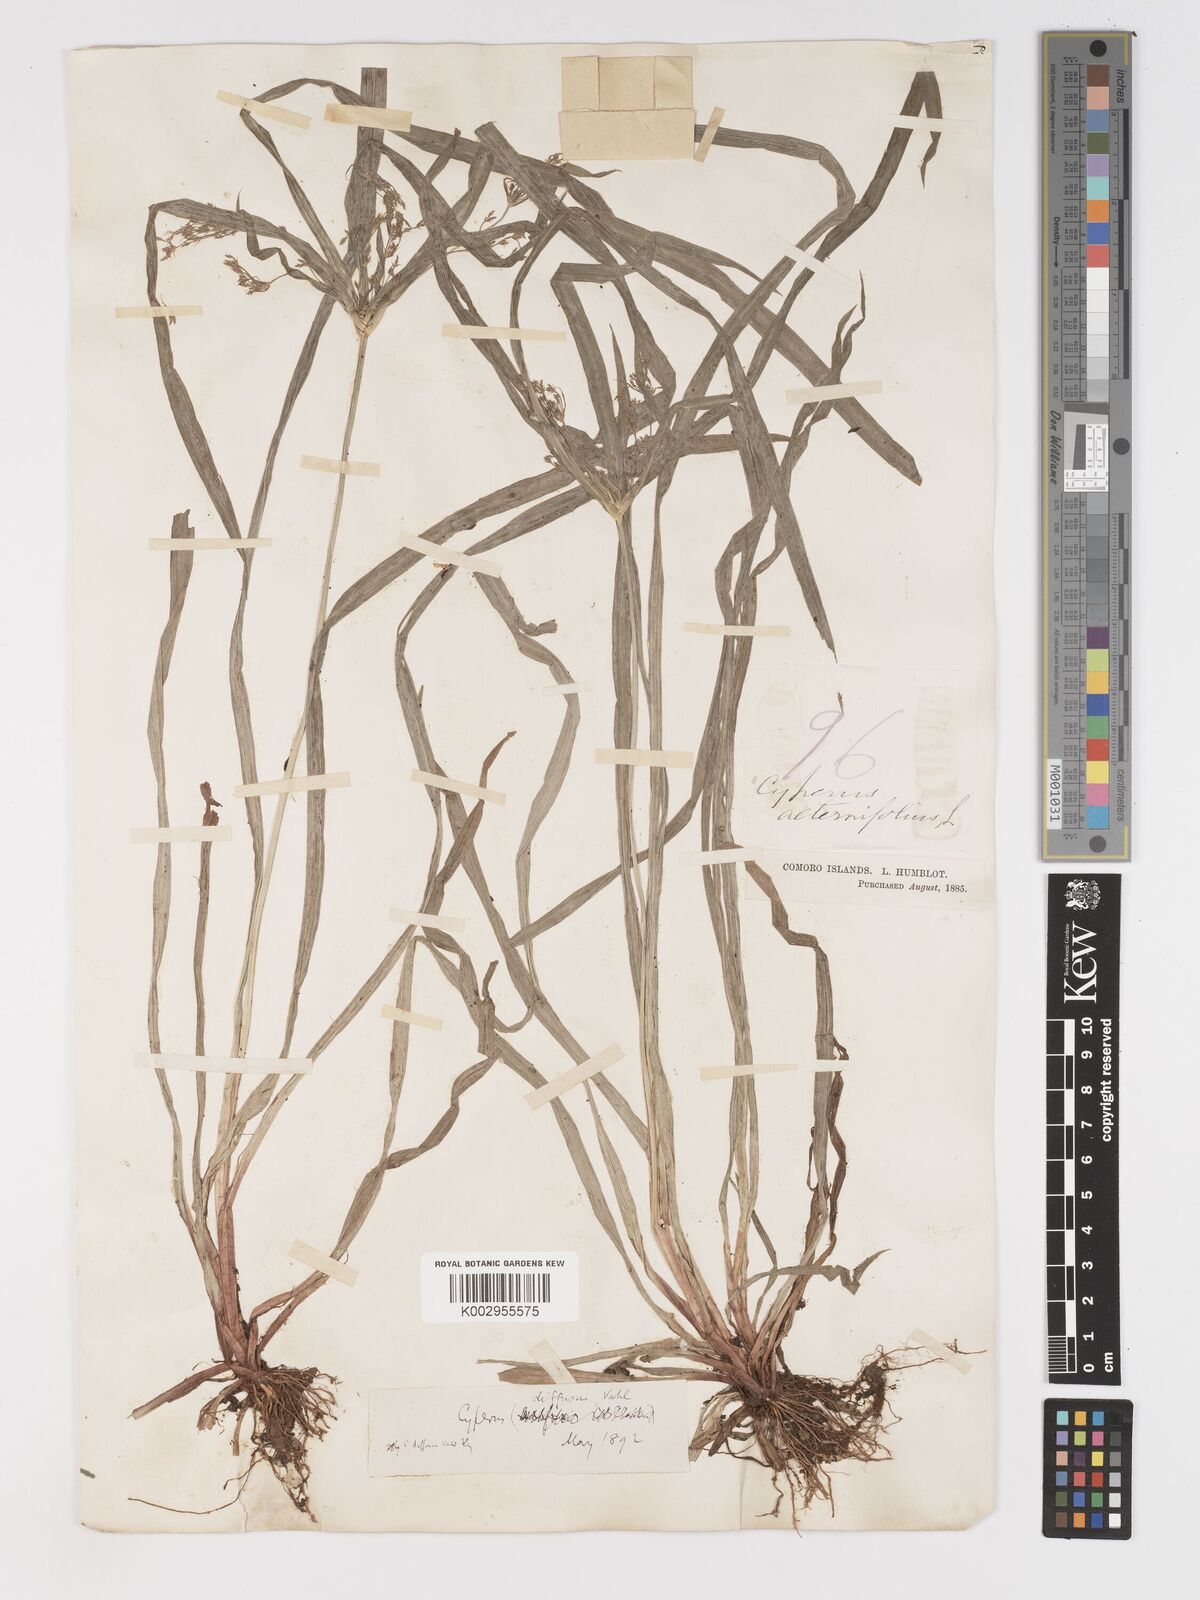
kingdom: Plantae
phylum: Tracheophyta
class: Liliopsida
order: Poales
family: Cyperaceae
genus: Cyperus
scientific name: Cyperus diffusus
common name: Dwarf umbrella grass
